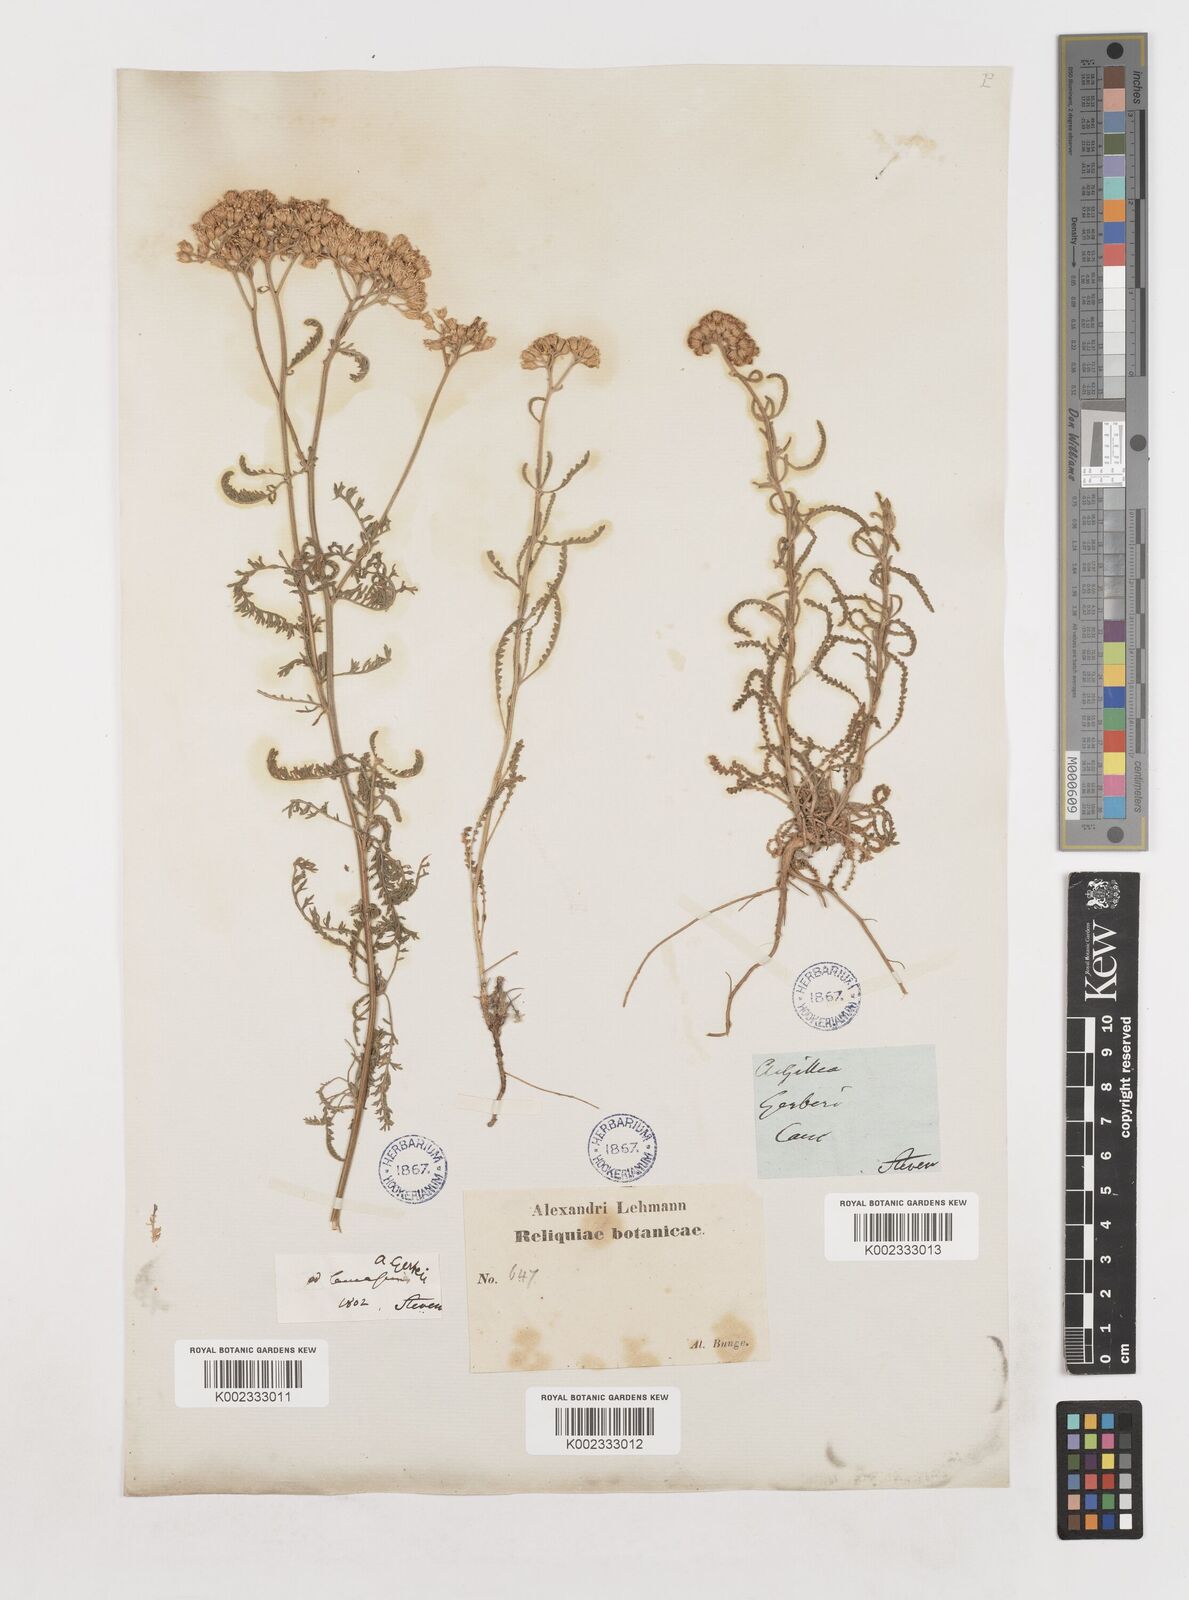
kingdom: Plantae
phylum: Tracheophyta
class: Magnoliopsida
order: Asterales
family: Asteraceae
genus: Achillea
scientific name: Achillea nobilis
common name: Noble yarrow
